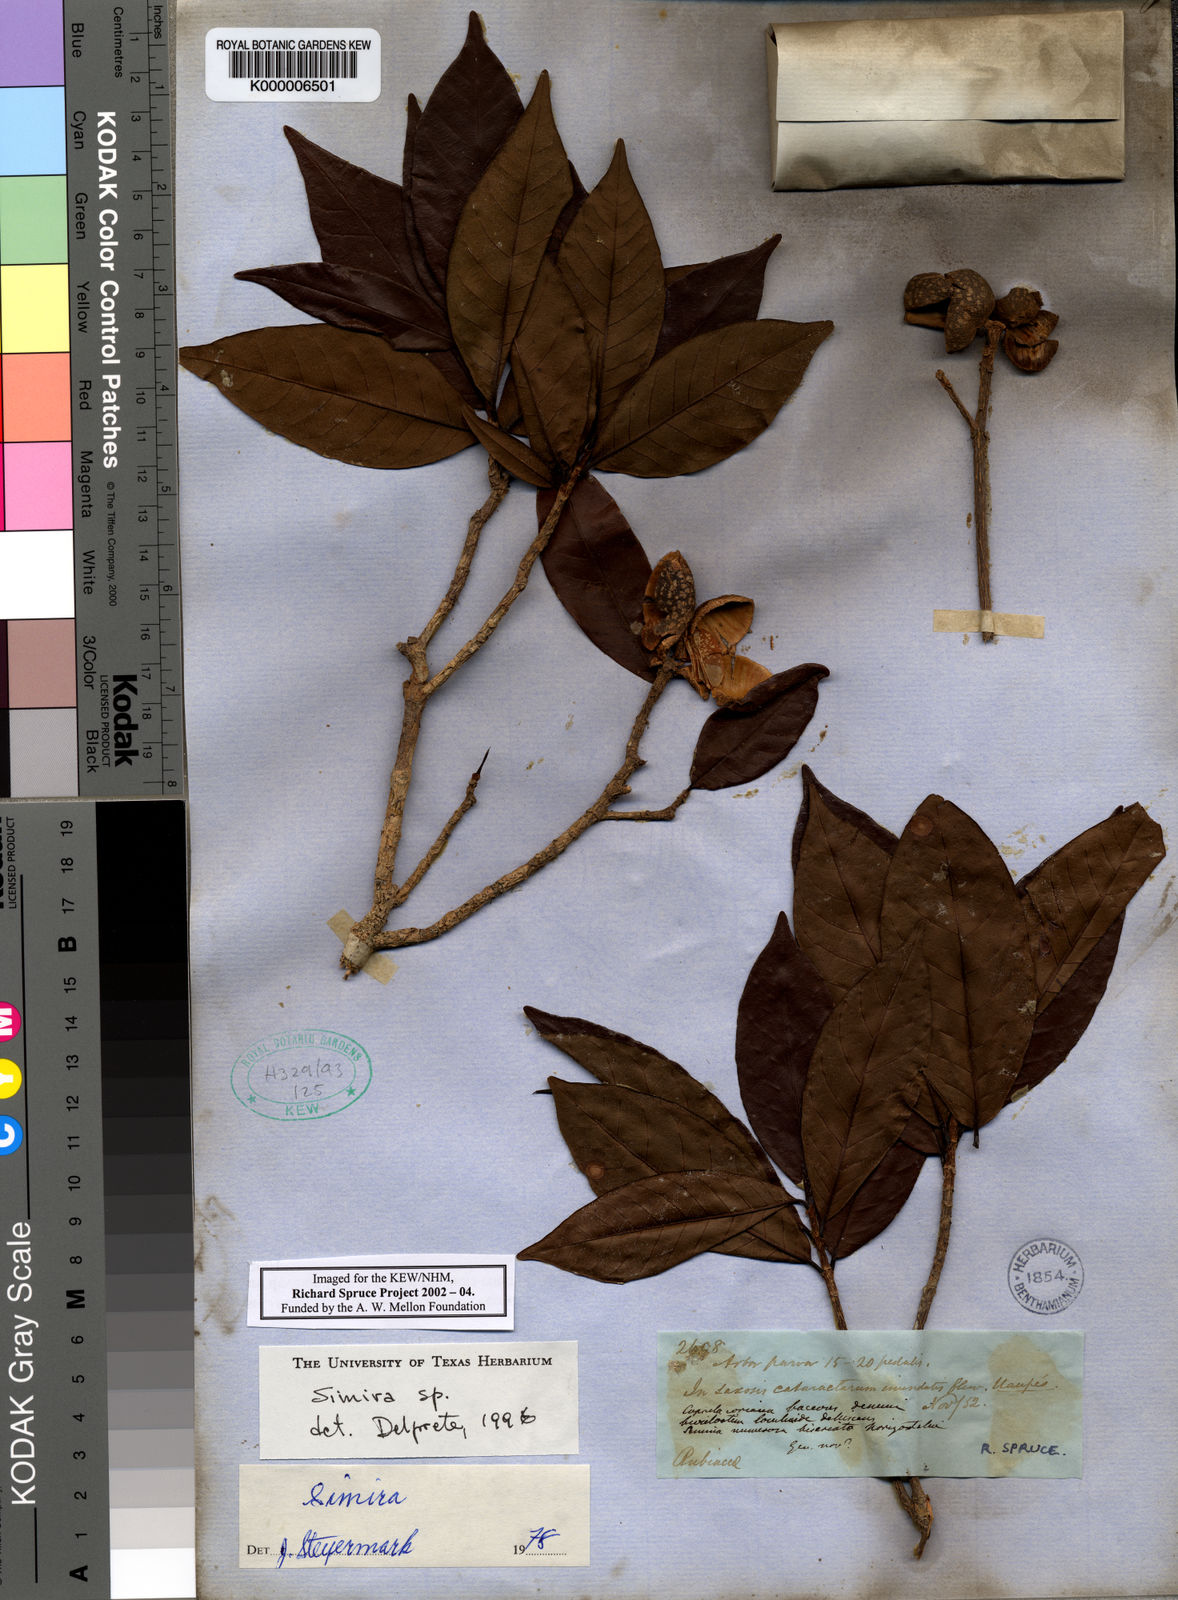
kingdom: Plantae
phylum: Tracheophyta
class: Magnoliopsida
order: Gentianales
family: Rubiaceae
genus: Simira
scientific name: Simira
